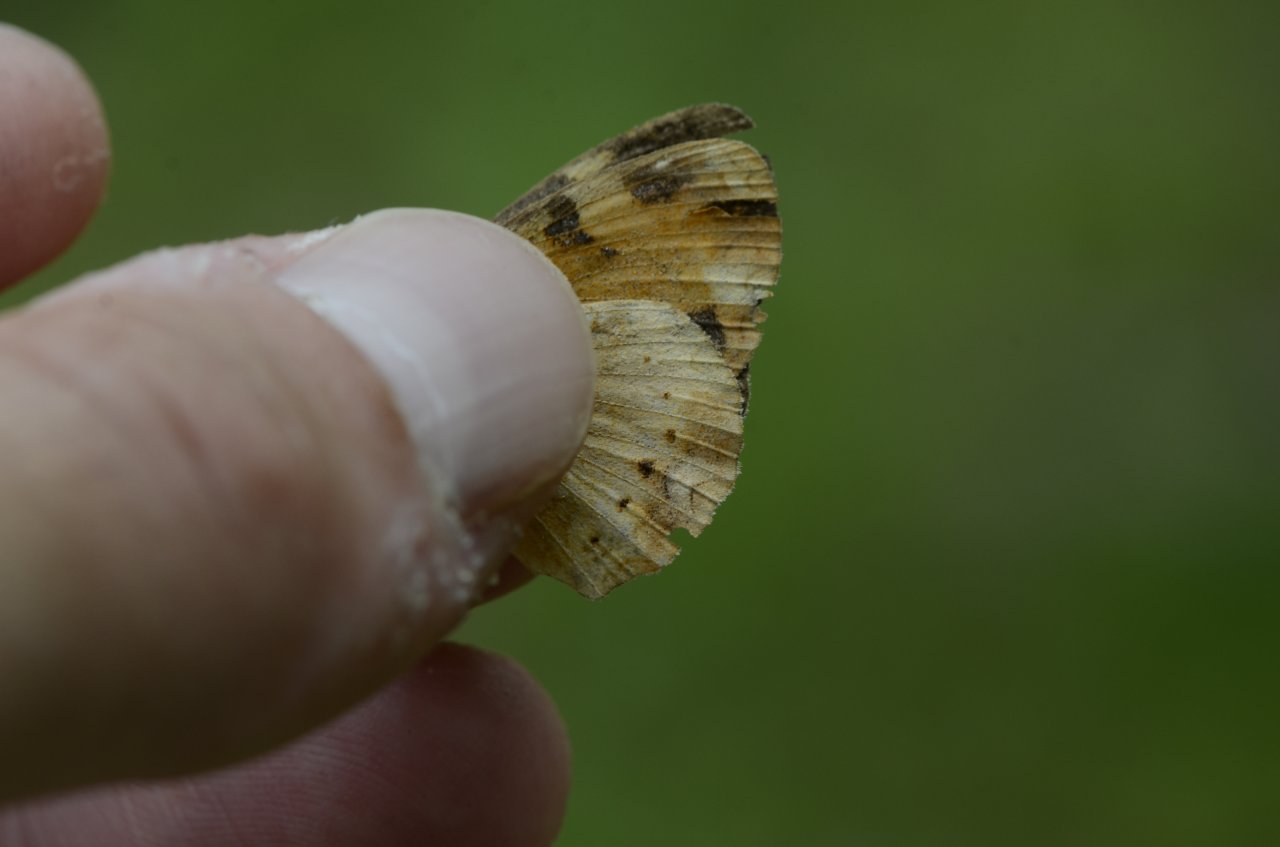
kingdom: Animalia
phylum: Arthropoda
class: Insecta
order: Lepidoptera
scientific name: Lepidoptera
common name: Butterflies
